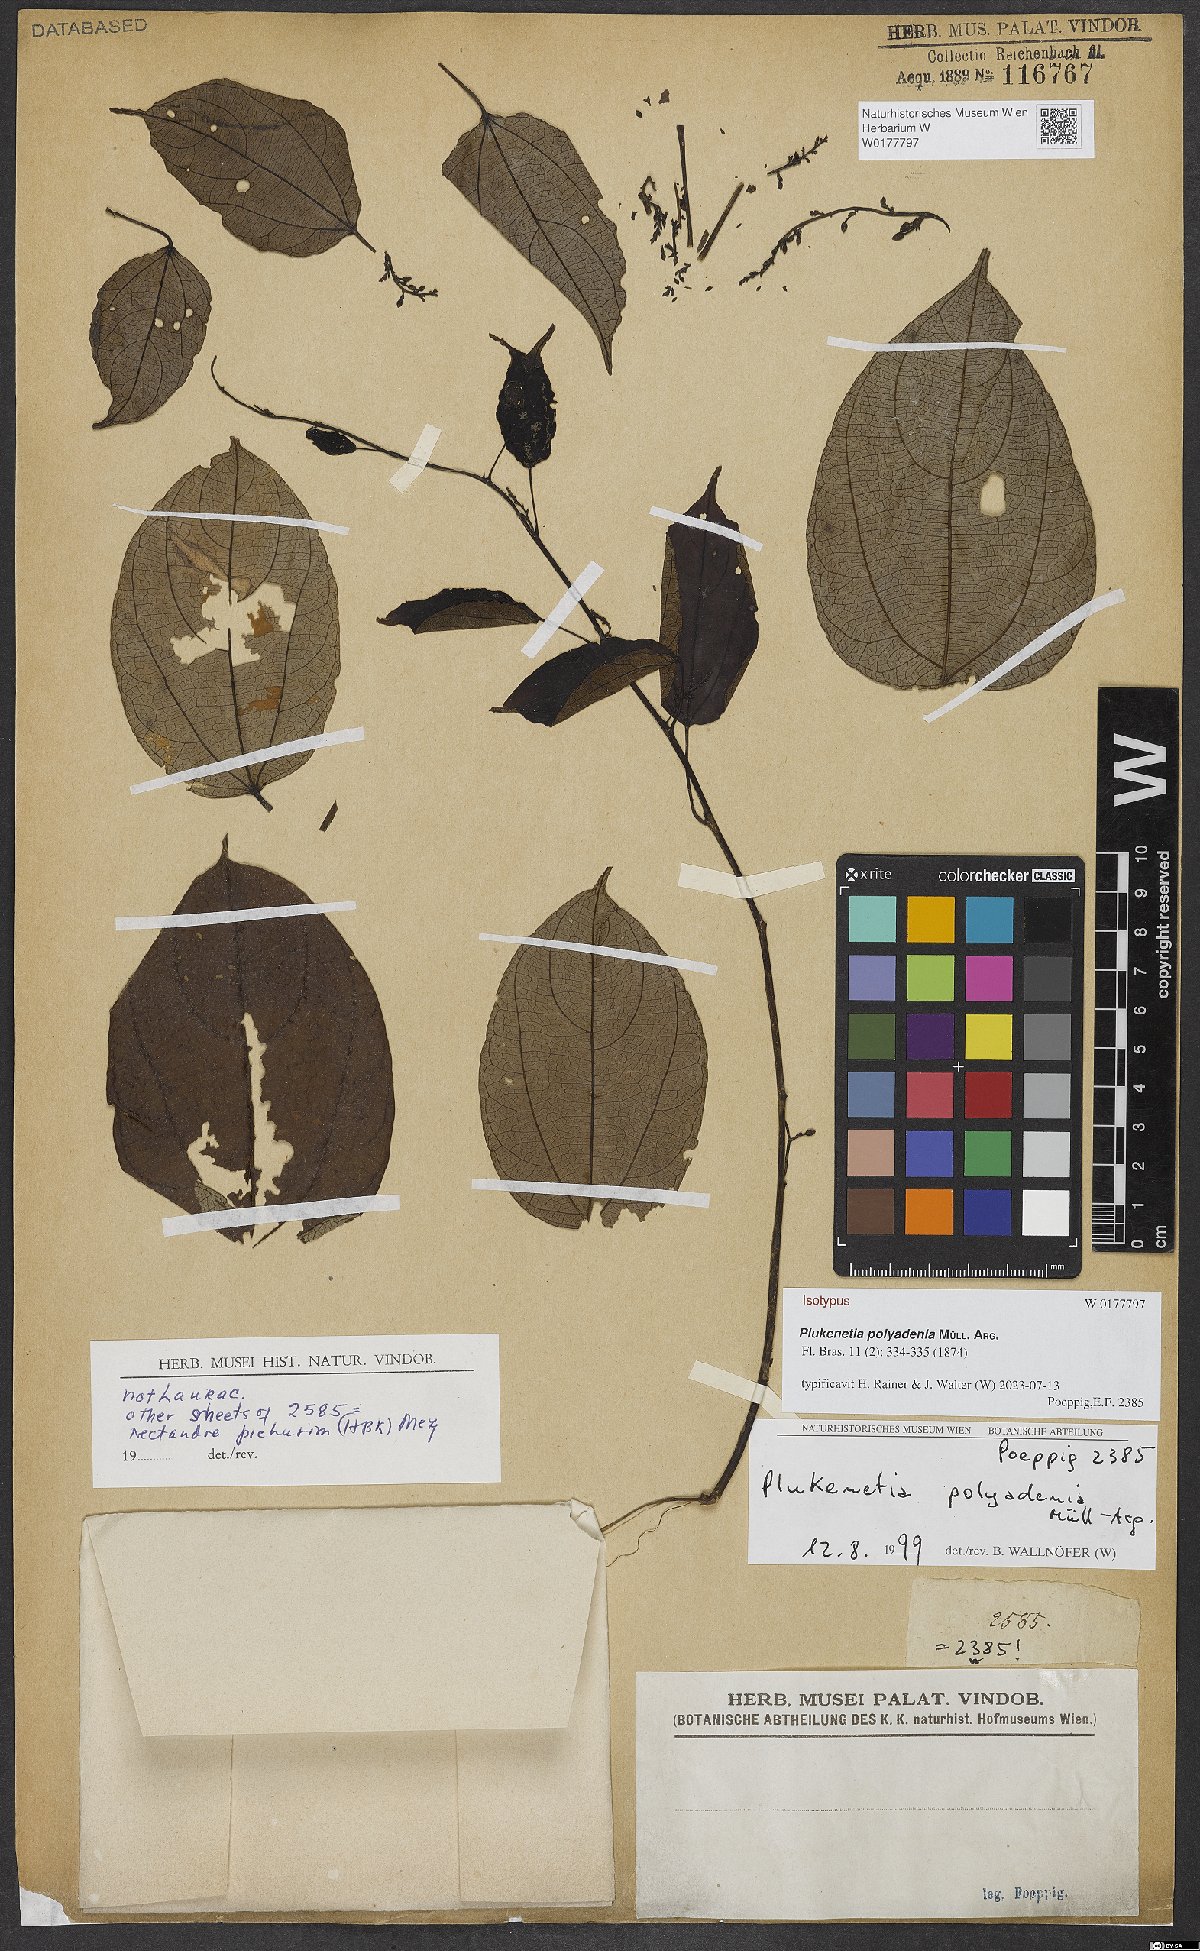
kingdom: Plantae
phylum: Tracheophyta
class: Magnoliopsida
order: Malpighiales
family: Euphorbiaceae
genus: Plukenetia
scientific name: Plukenetia polyadenia
